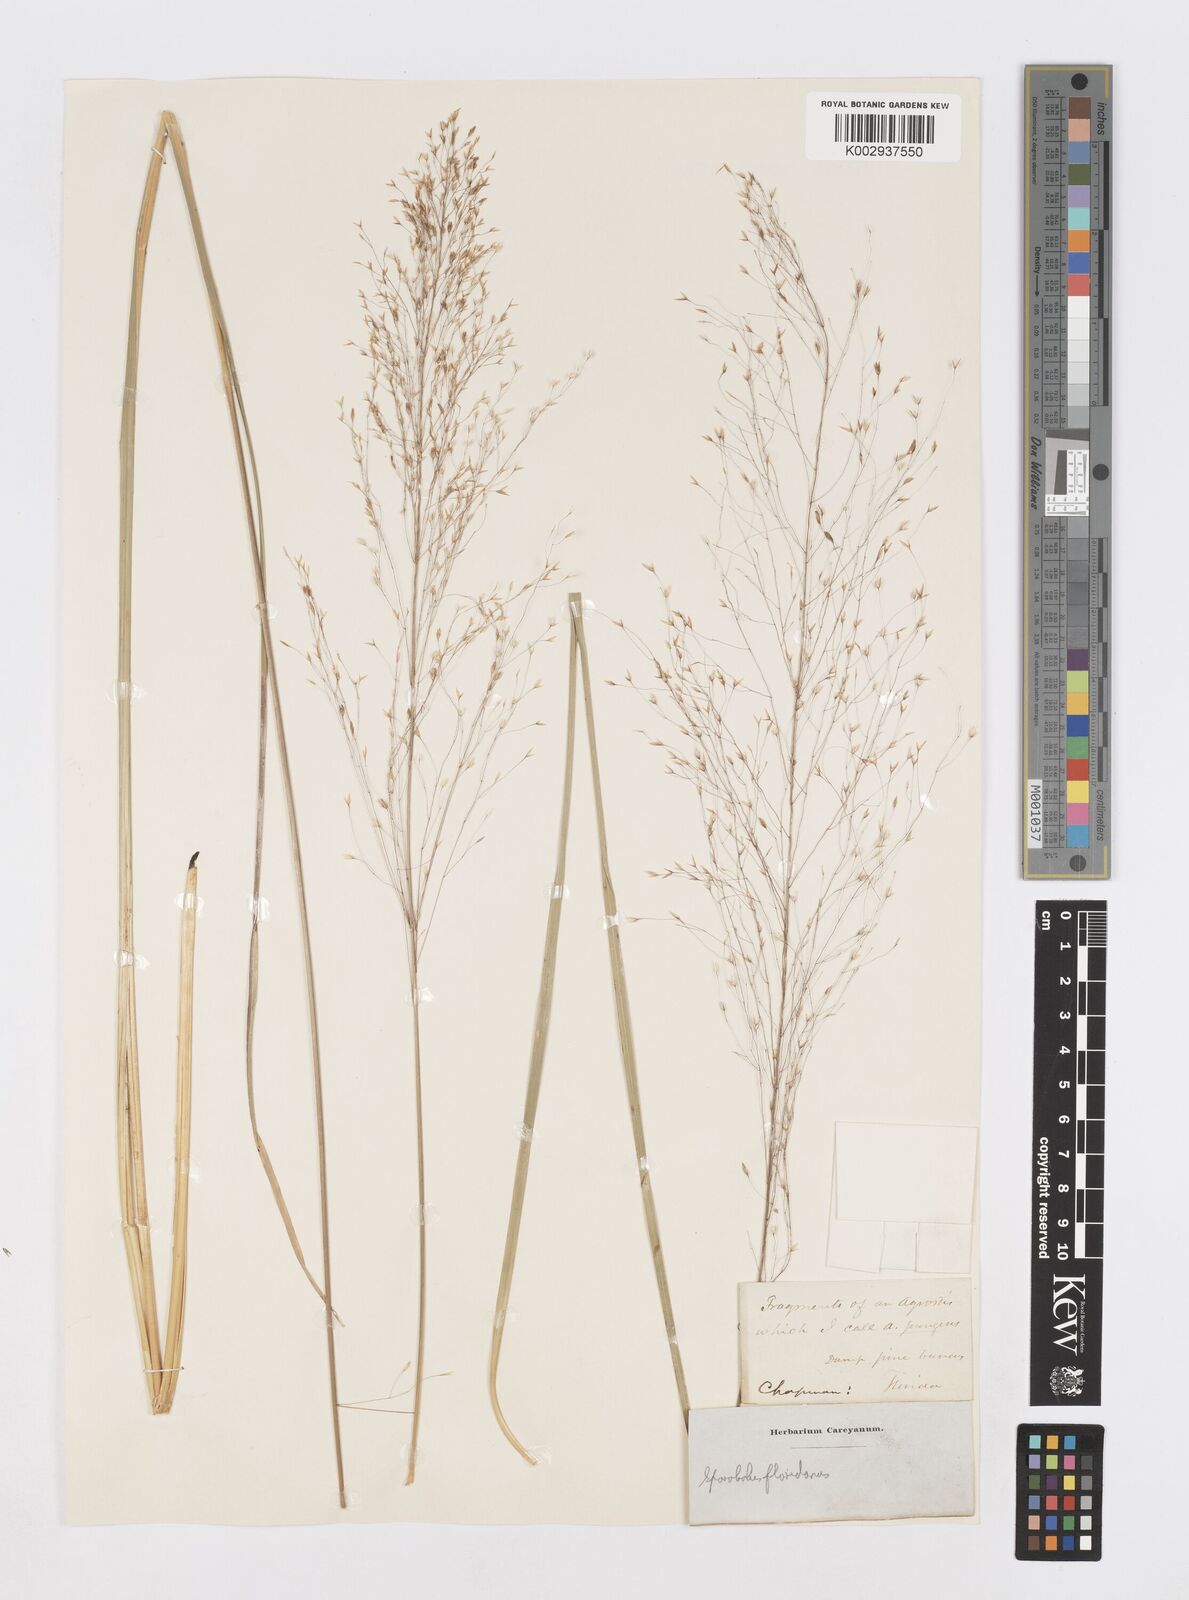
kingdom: Plantae
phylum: Tracheophyta
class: Liliopsida
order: Poales
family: Poaceae
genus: Sporobolus
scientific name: Sporobolus floridanus
